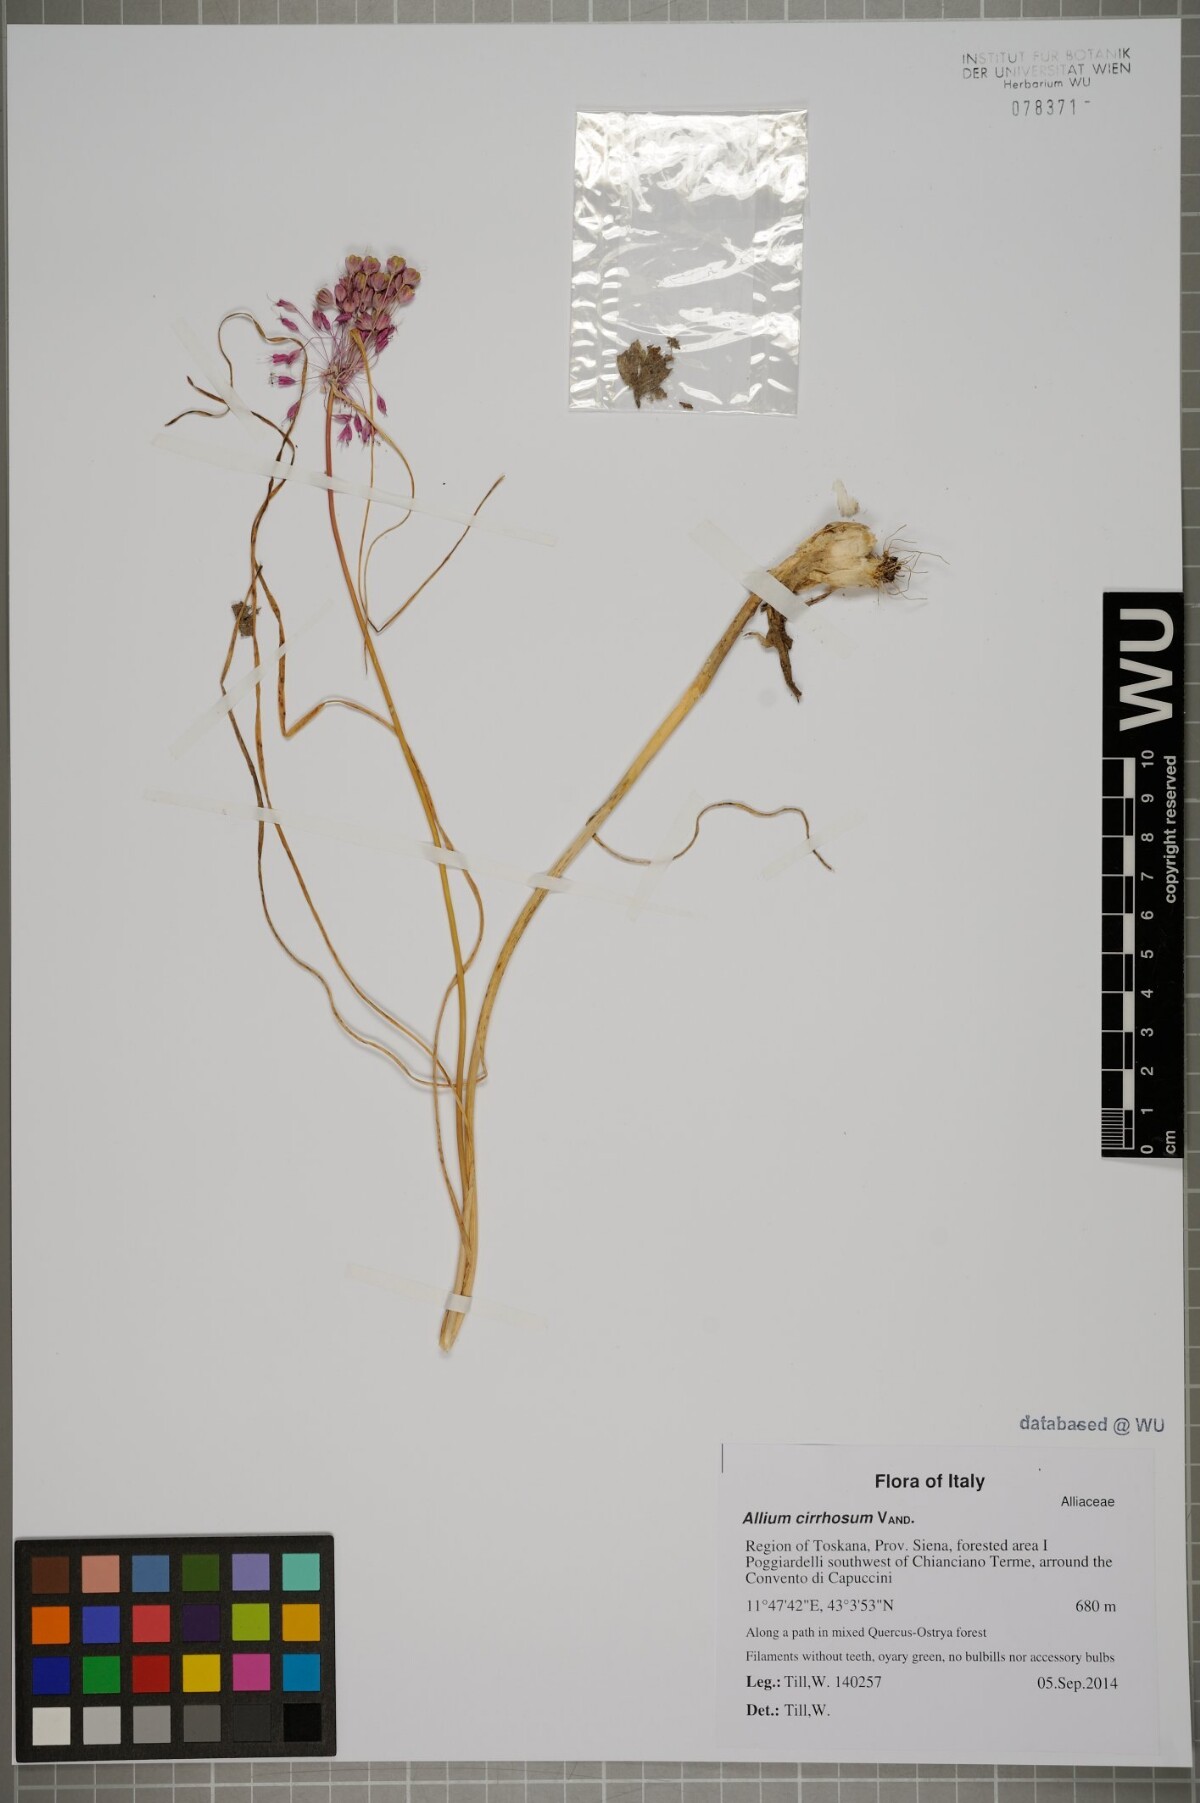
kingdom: Plantae
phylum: Tracheophyta
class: Liliopsida
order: Asparagales
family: Amaryllidaceae
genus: Allium
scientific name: Allium coloratum
